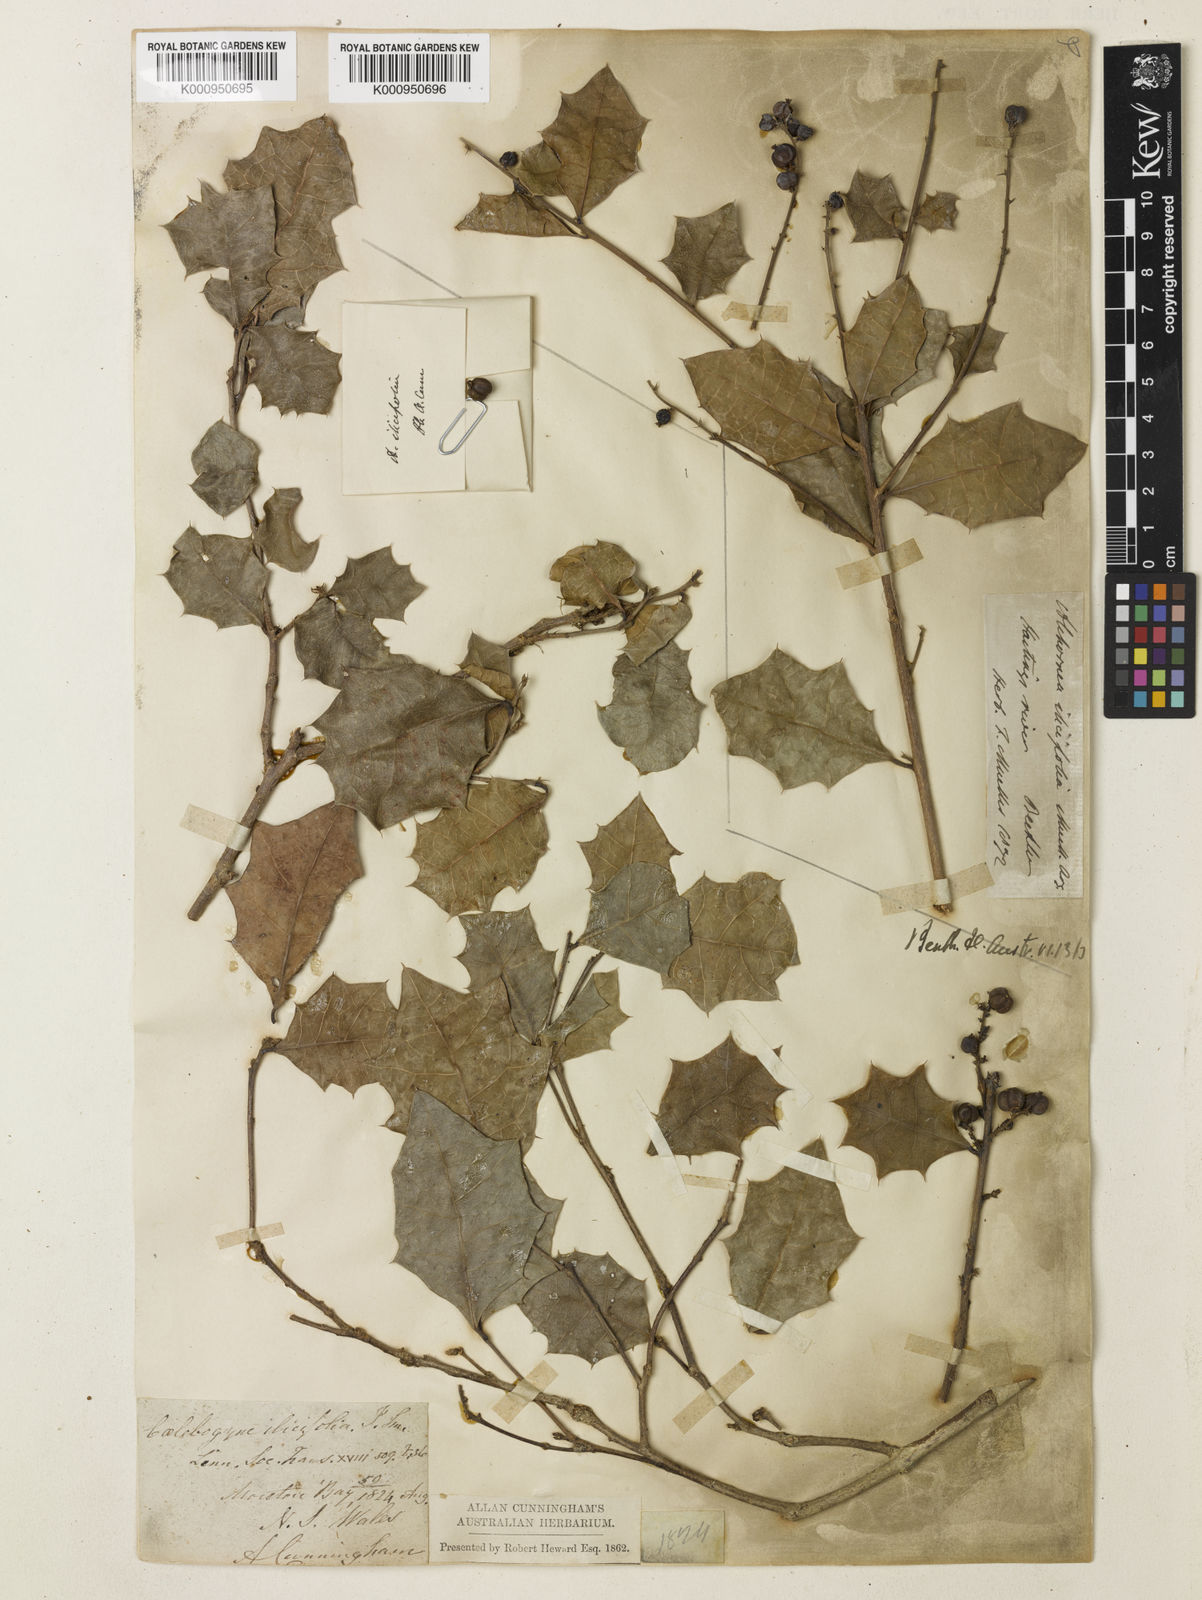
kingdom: Plantae
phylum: Tracheophyta
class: Magnoliopsida
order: Malpighiales
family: Euphorbiaceae
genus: Alchornea
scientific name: Alchornea
